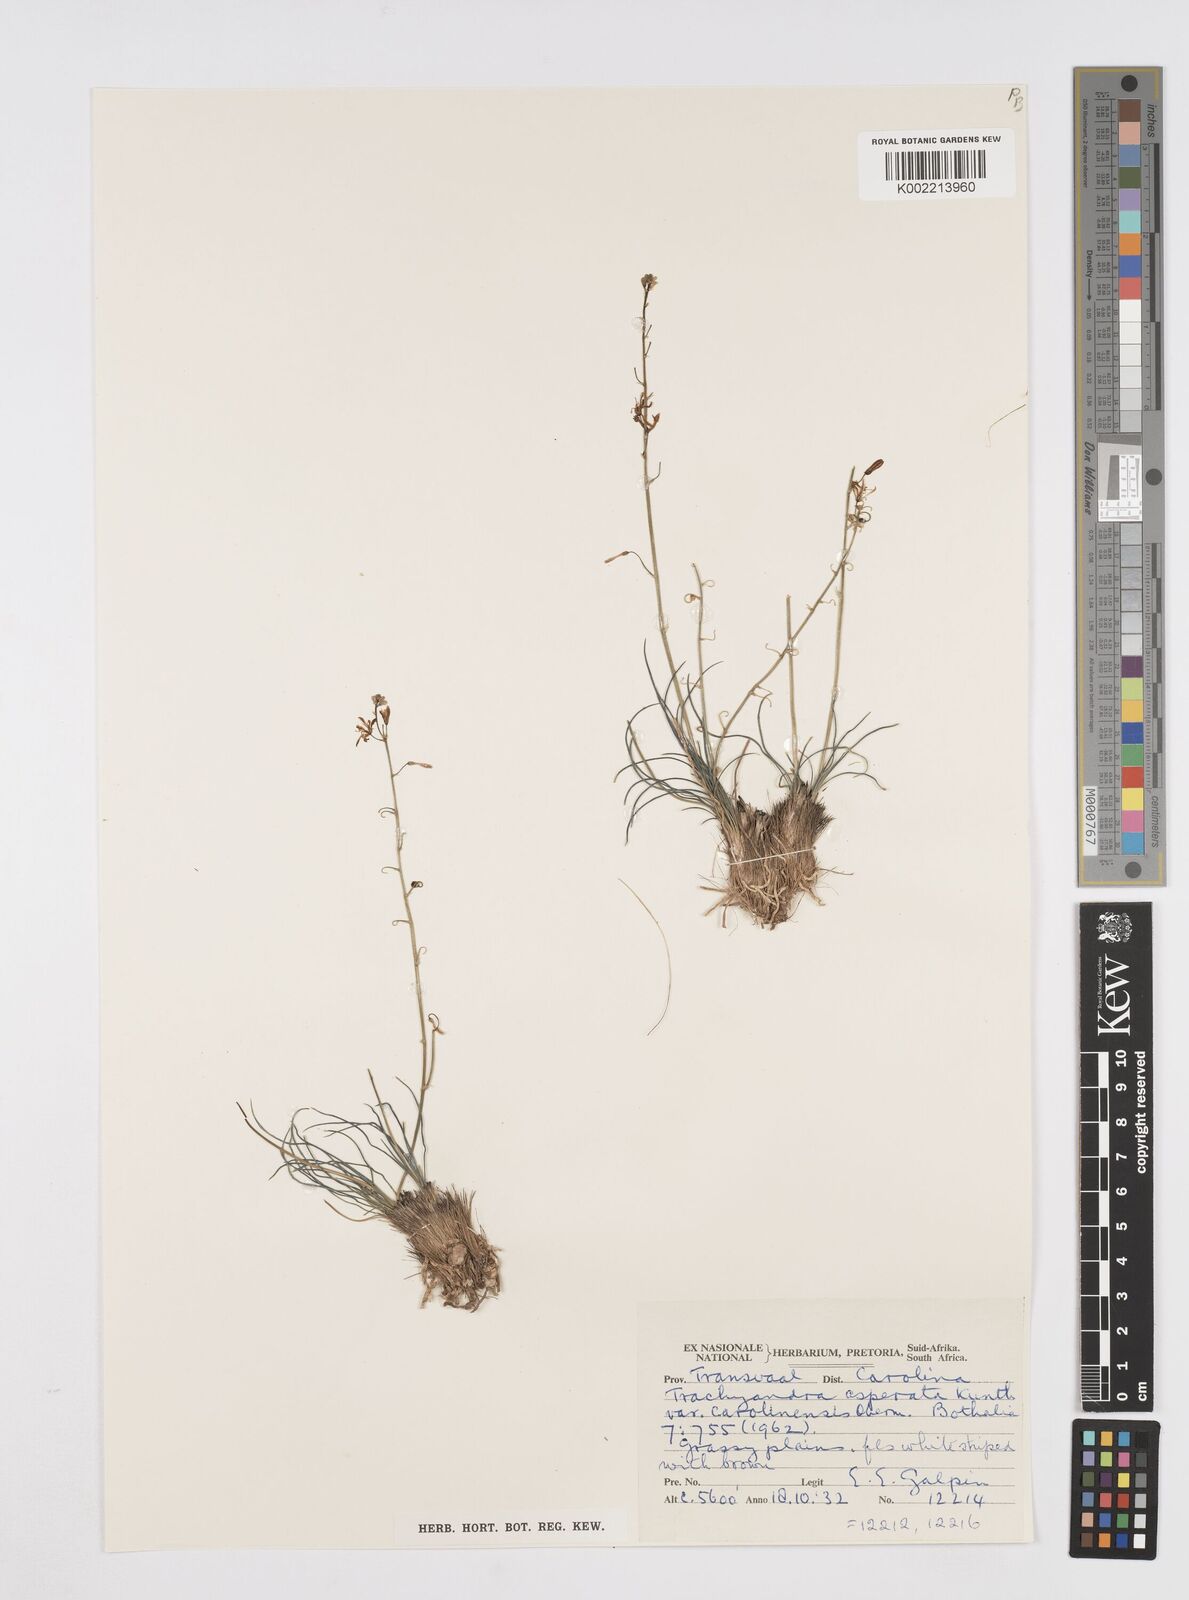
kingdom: Plantae
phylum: Tracheophyta
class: Liliopsida
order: Asparagales
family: Asphodelaceae
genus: Trachyandra
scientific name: Trachyandra asperata
